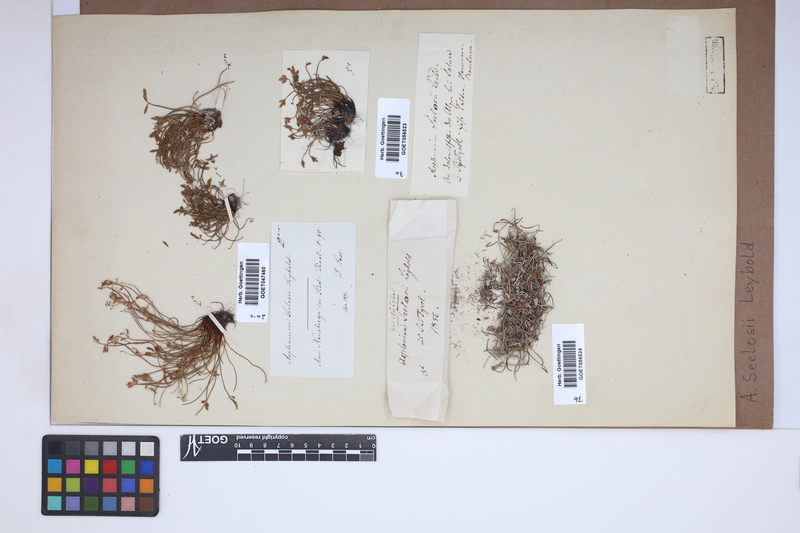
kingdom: Plantae
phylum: Tracheophyta
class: Polypodiopsida
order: Polypodiales
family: Aspleniaceae
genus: Asplenium
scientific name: Asplenium seelosii
